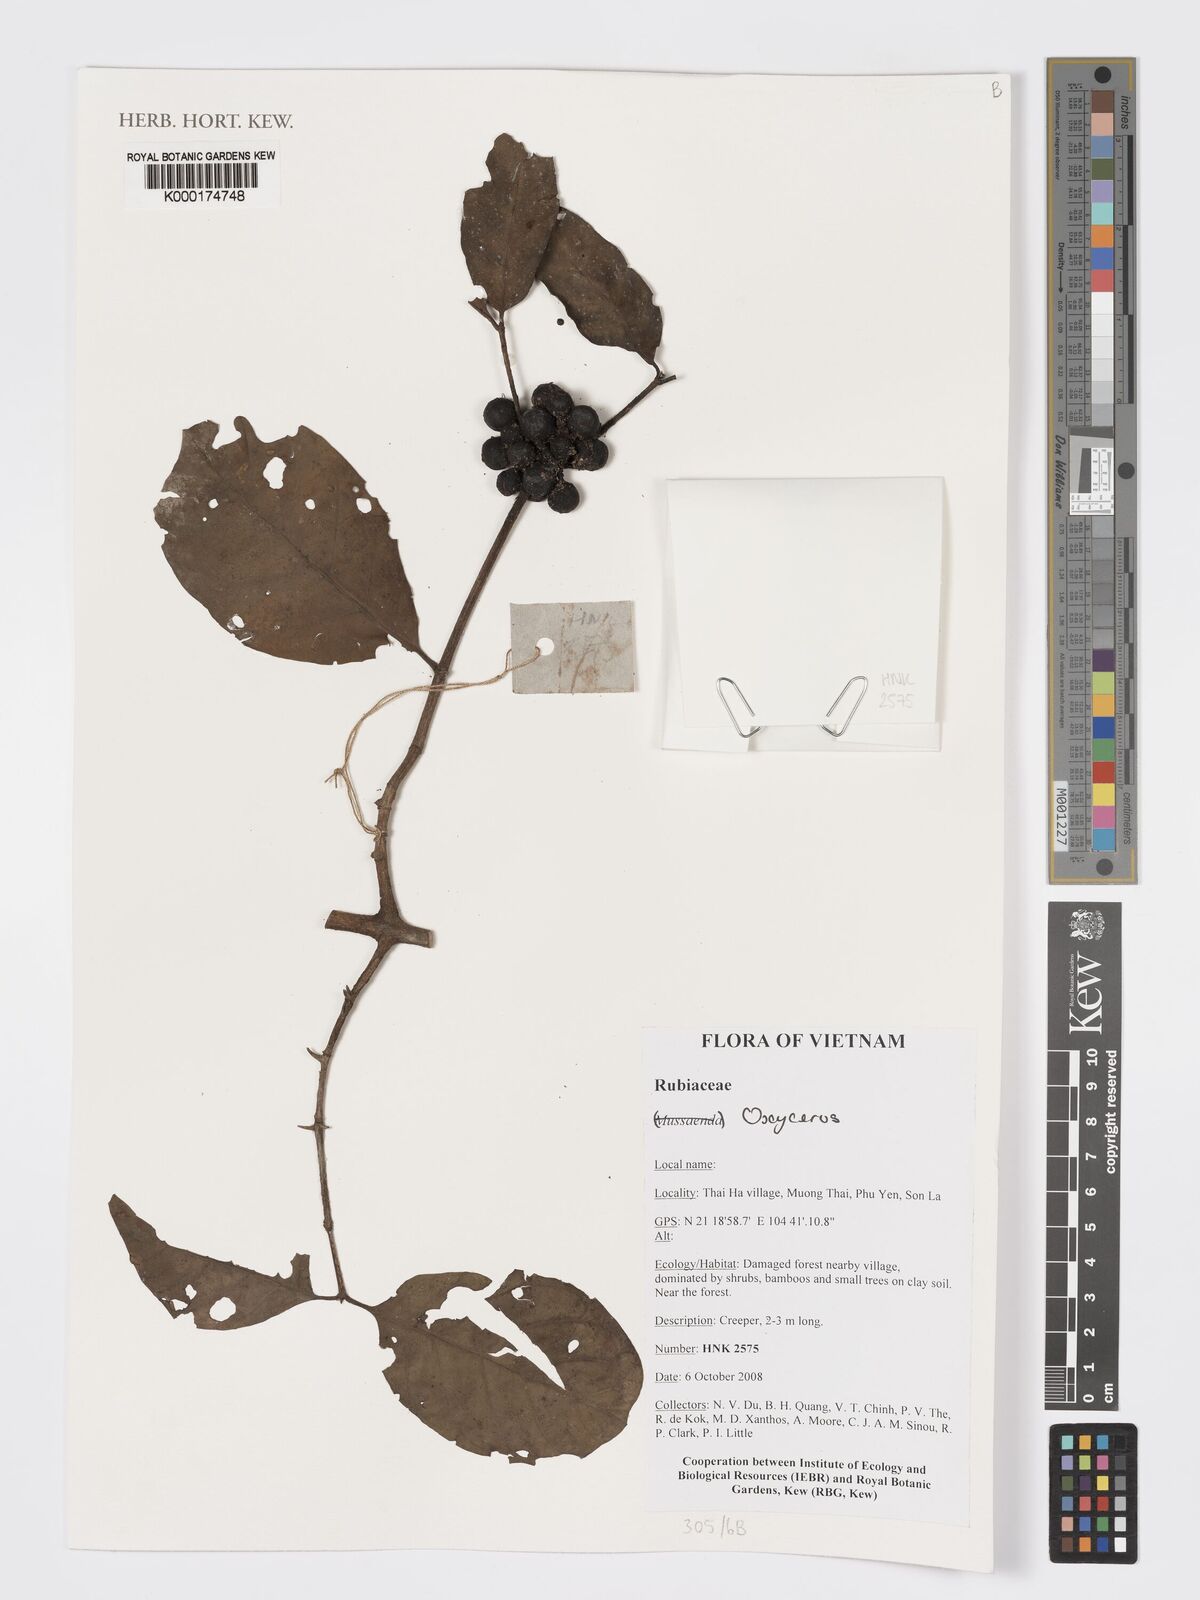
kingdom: Plantae
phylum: Tracheophyta
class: Magnoliopsida
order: Gentianales
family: Rubiaceae
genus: Oxyceros
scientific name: Oxyceros
